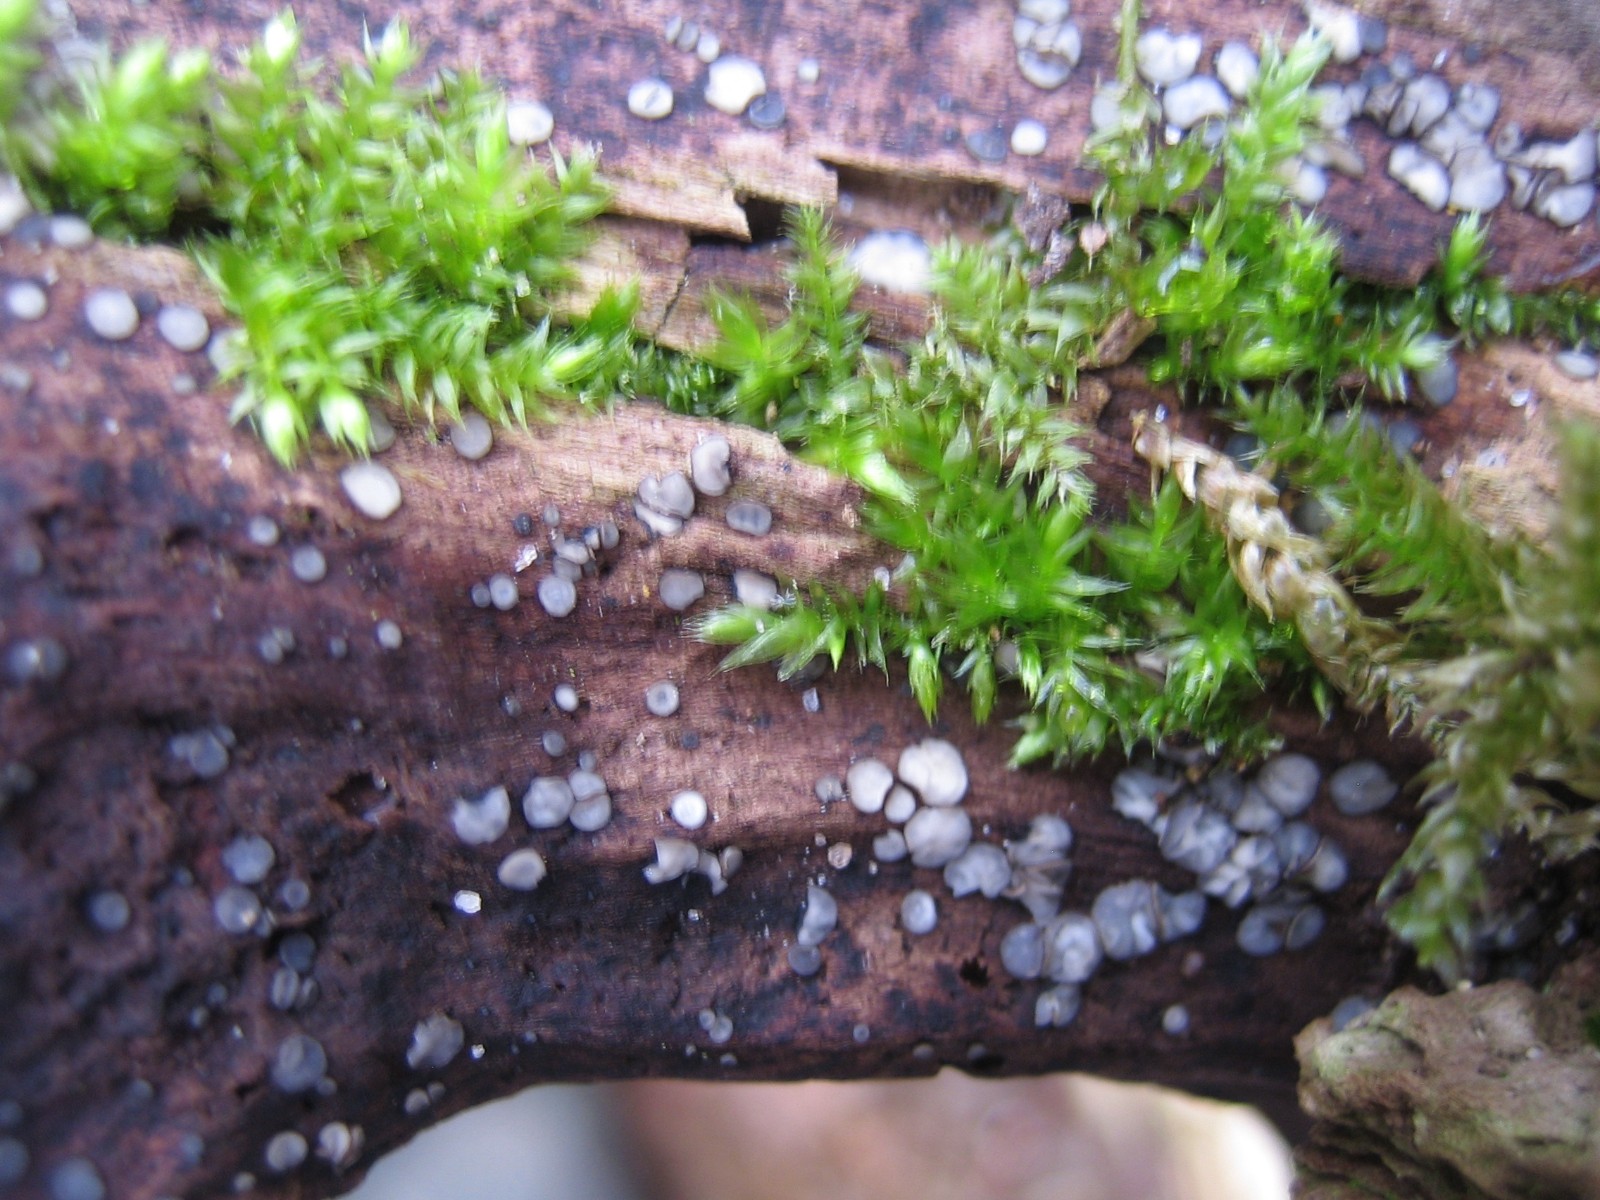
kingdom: Fungi
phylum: Ascomycota
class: Leotiomycetes
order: Helotiales
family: Mollisiaceae
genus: Mollisia
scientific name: Mollisia
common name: gråskive
